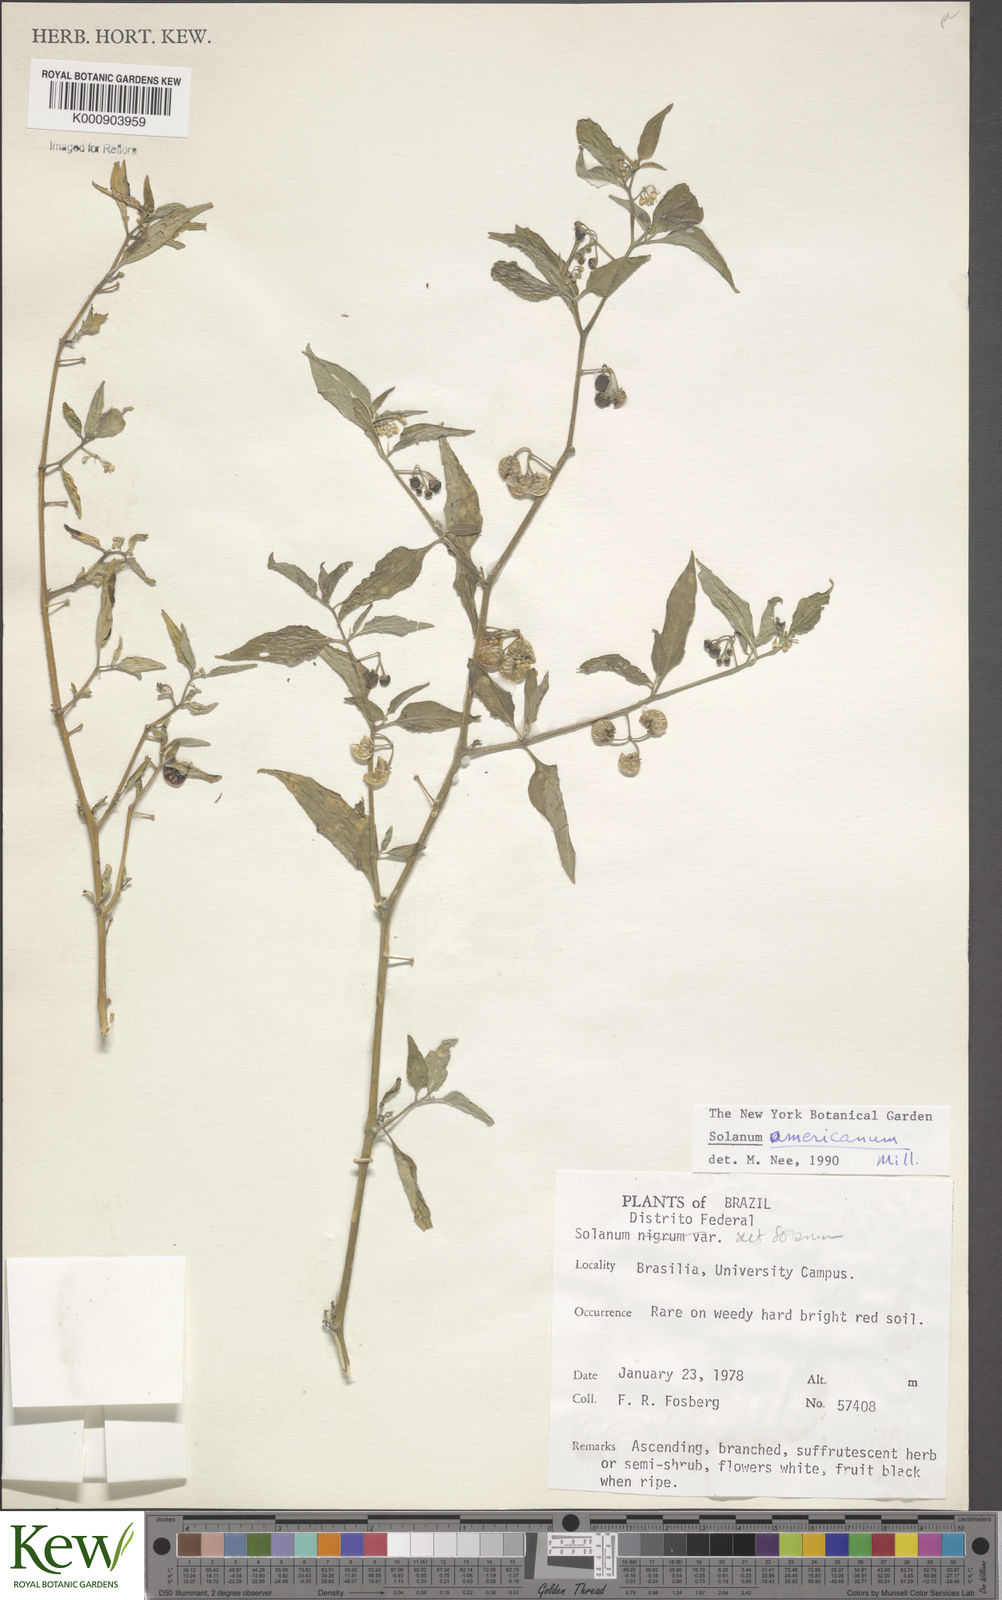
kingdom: Plantae
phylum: Tracheophyta
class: Magnoliopsida
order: Solanales
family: Solanaceae
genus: Solanum
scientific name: Solanum americanum
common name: American black nightshade
